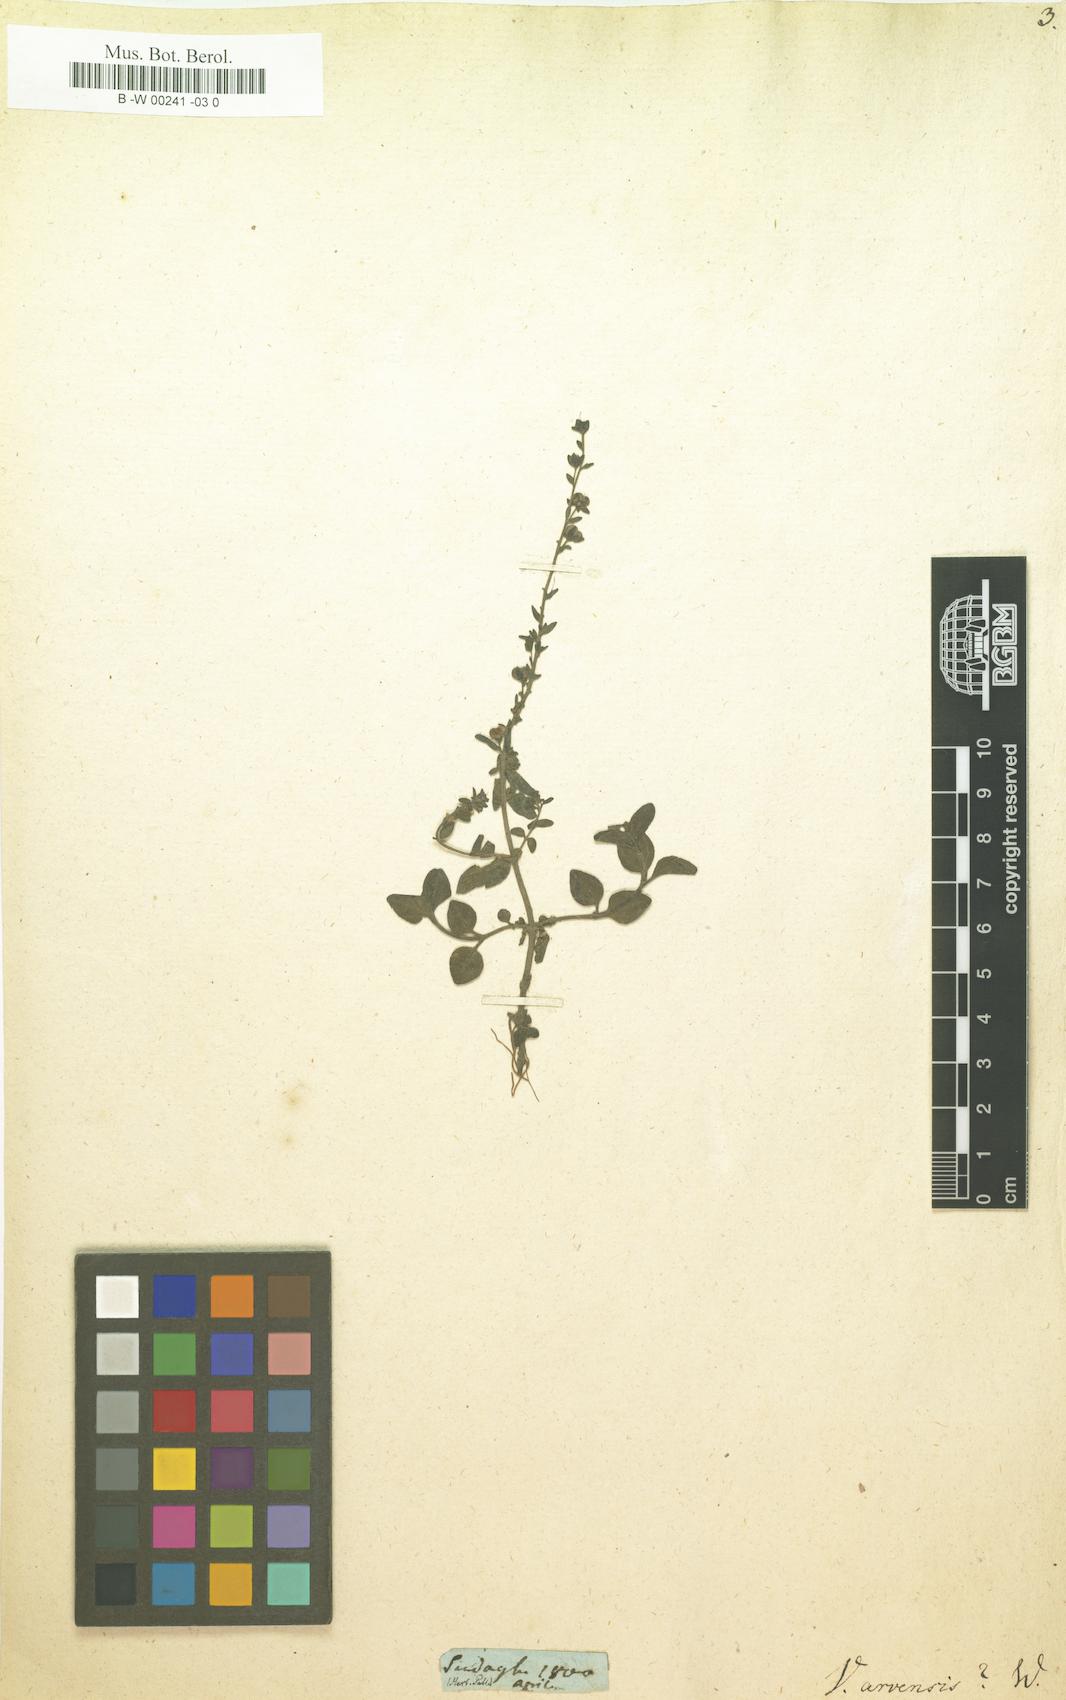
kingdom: Plantae
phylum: Tracheophyta
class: Magnoliopsida
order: Lamiales
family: Plantaginaceae
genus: Veronica
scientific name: Veronica arvensis
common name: Corn speedwell
